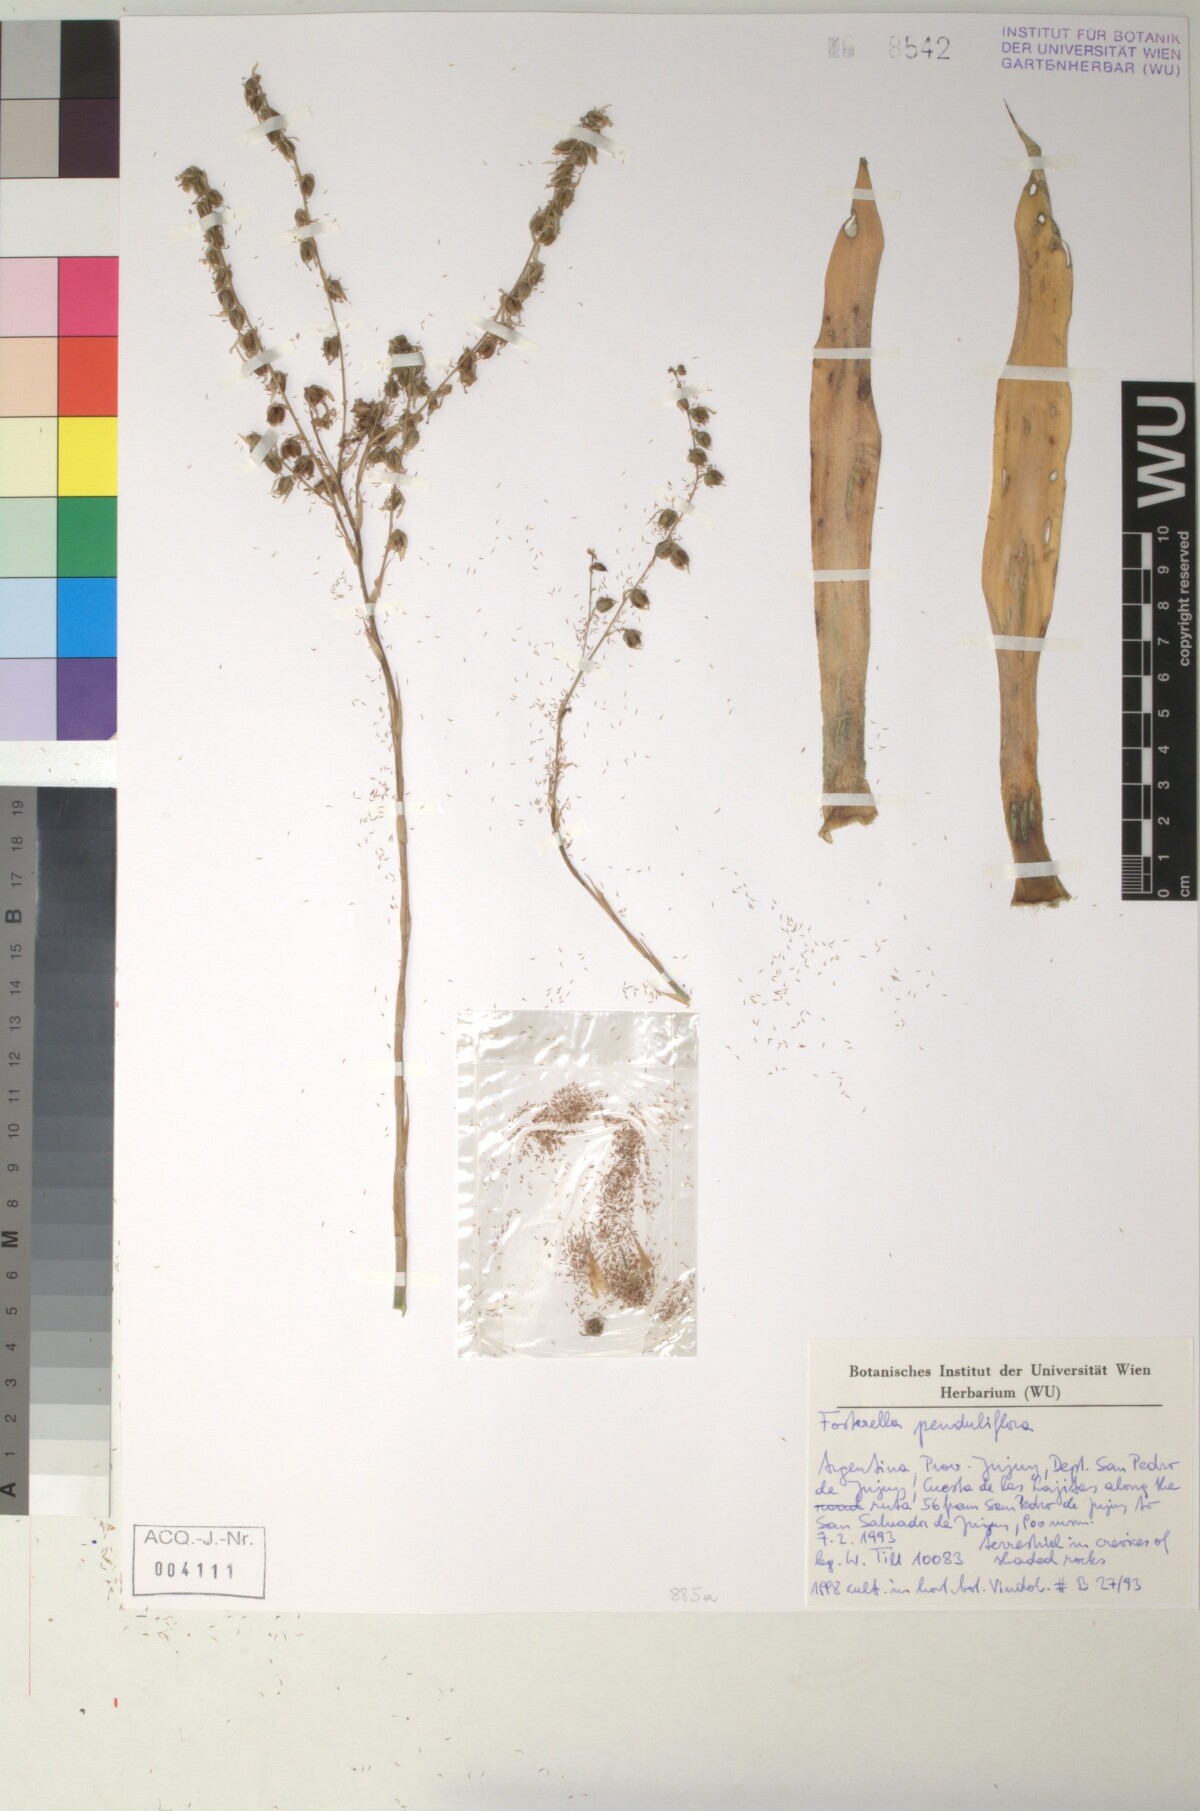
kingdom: Plantae
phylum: Tracheophyta
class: Liliopsida
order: Poales
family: Bromeliaceae
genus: Fosterella
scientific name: Fosterella penduliflora
